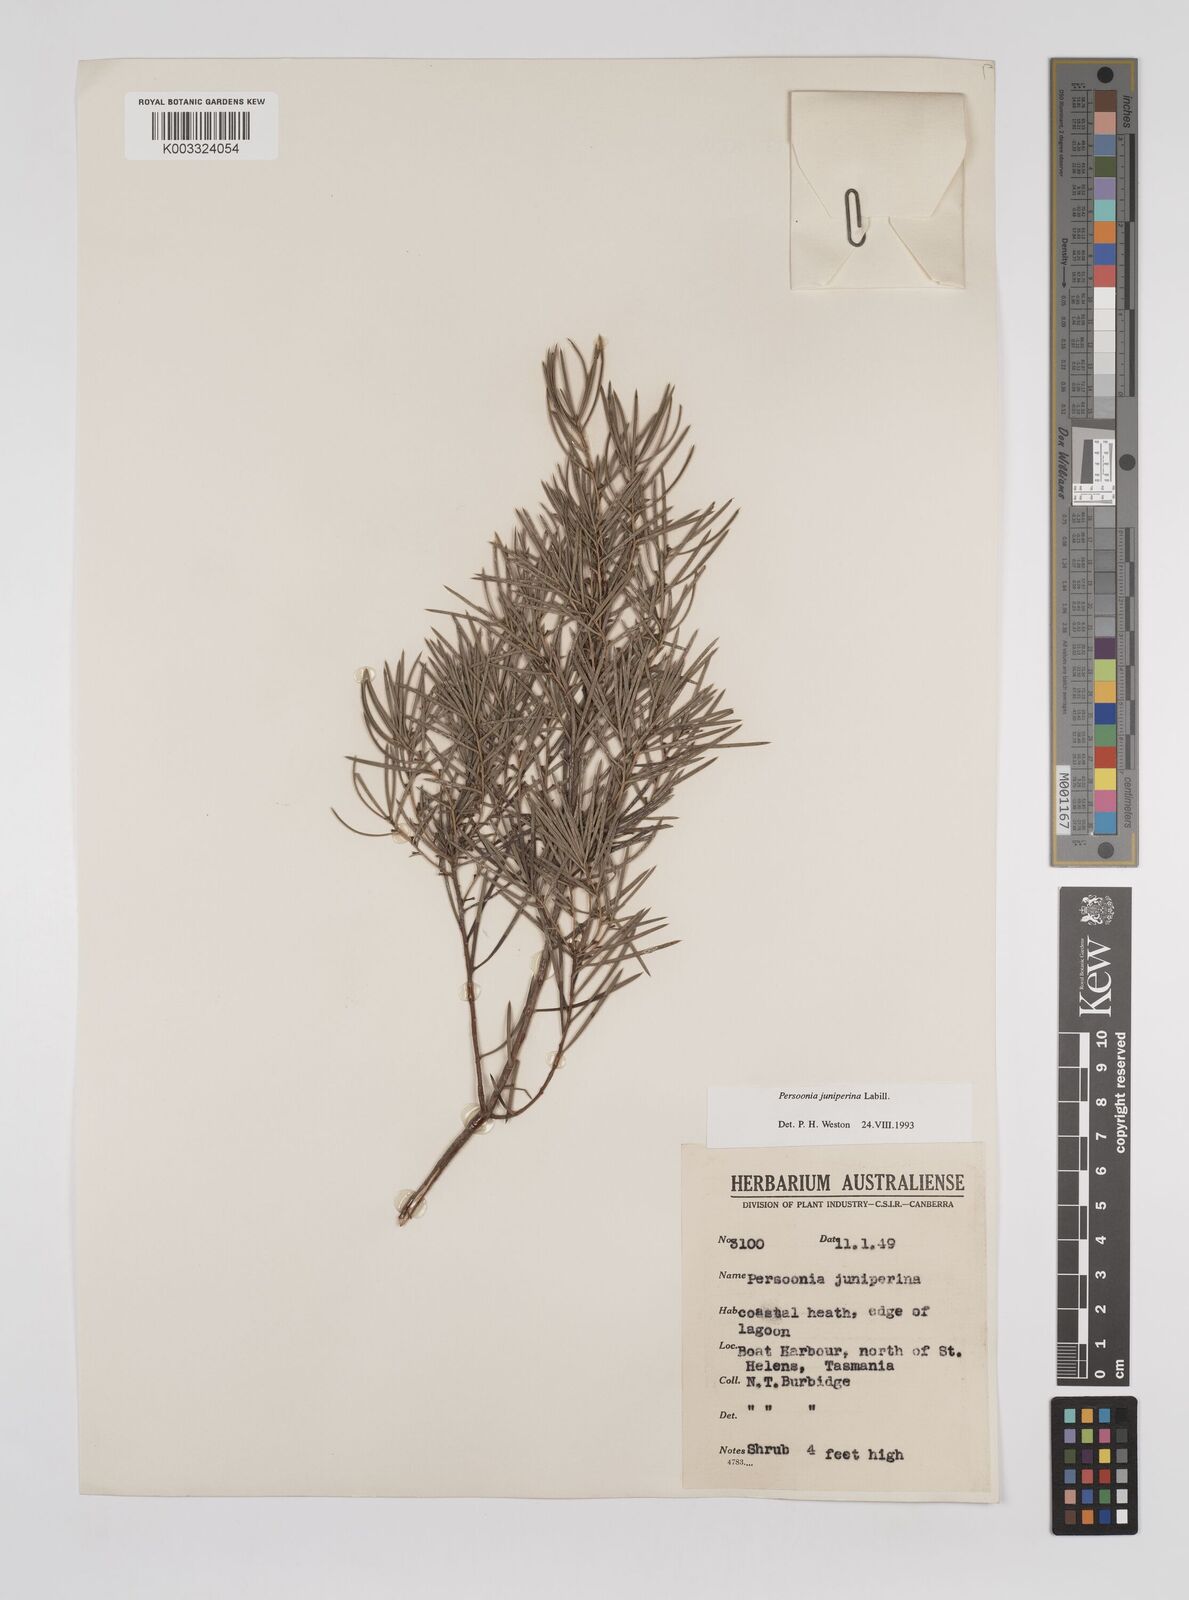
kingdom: Plantae
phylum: Tracheophyta
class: Magnoliopsida
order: Proteales
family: Proteaceae
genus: Persoonia
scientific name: Persoonia juniperina
